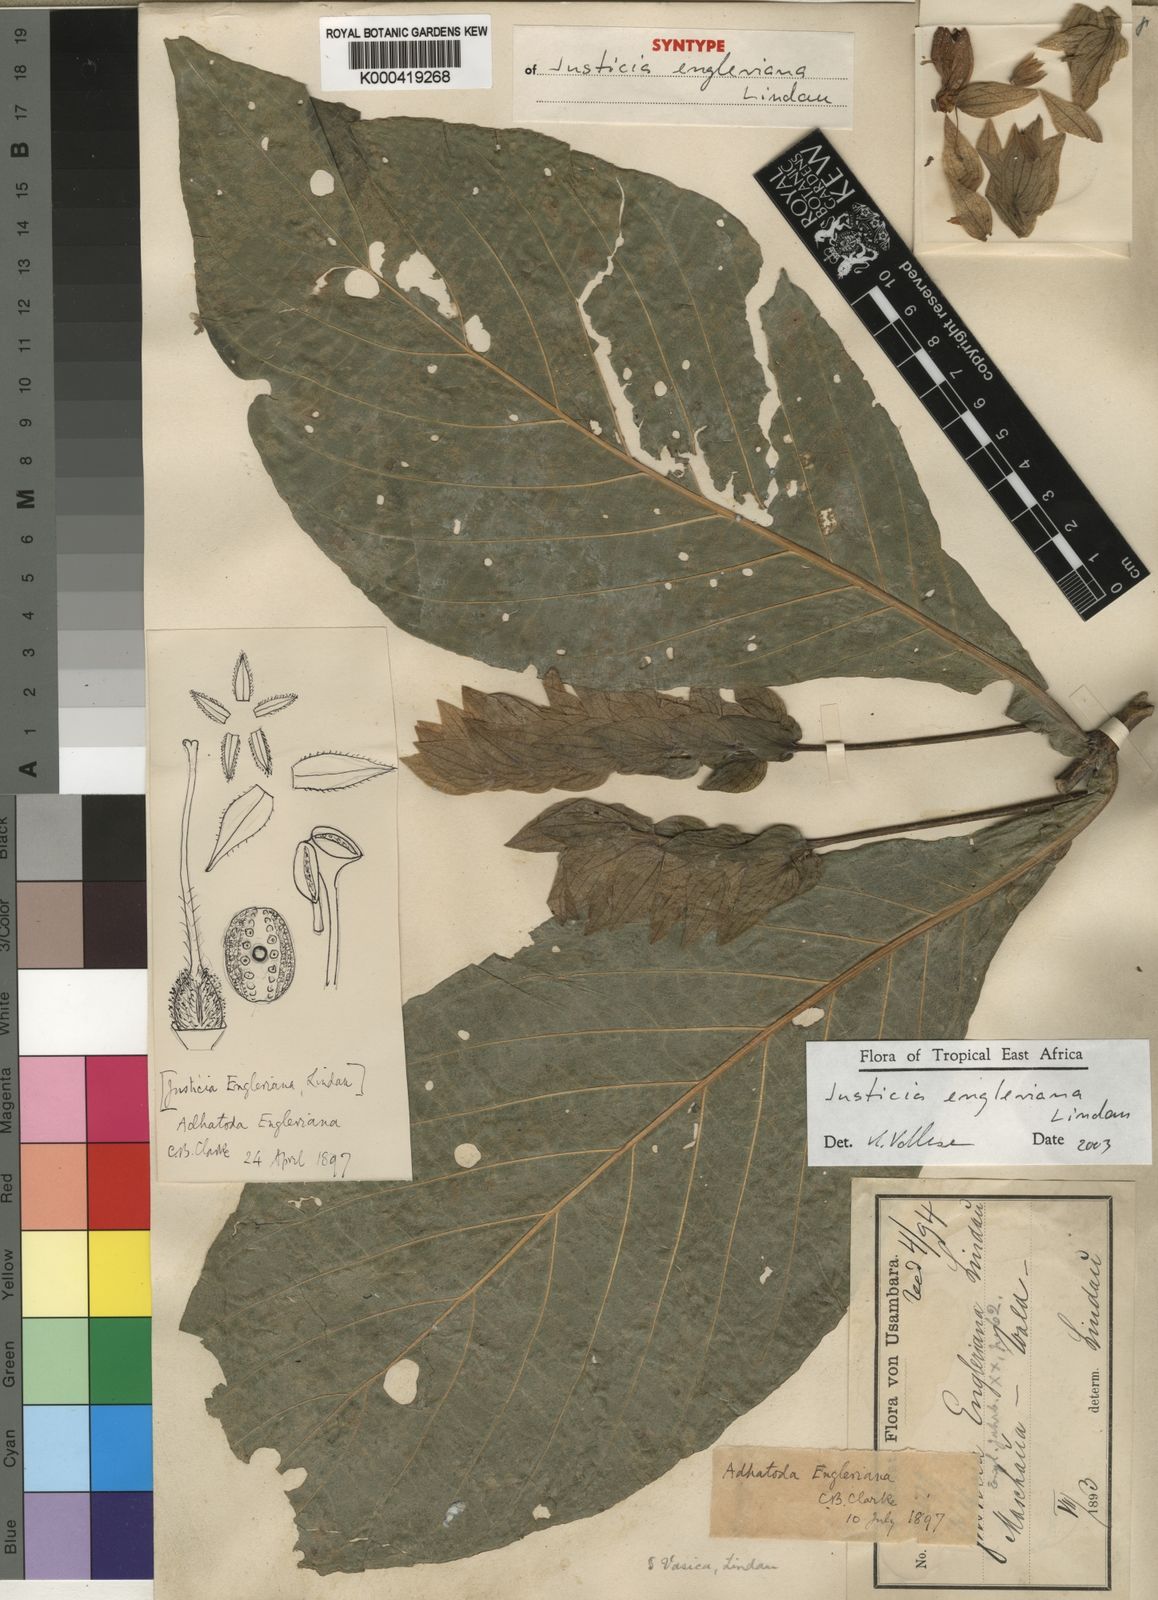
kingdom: Plantae
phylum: Tracheophyta
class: Magnoliopsida
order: Lamiales
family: Acanthaceae
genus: Nicoteba
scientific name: Nicoteba betonica
